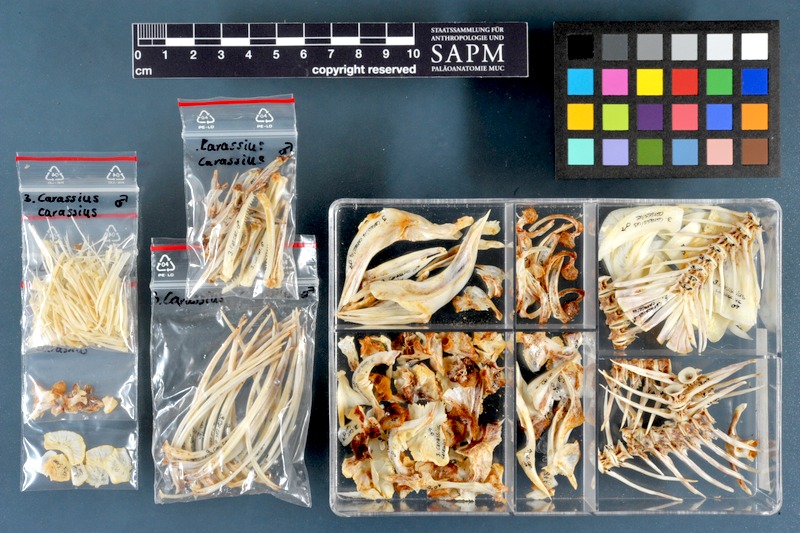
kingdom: Animalia
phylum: Chordata
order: Cypriniformes
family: Cyprinidae
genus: Carassius
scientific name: Carassius carassius
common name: Crucian carp
